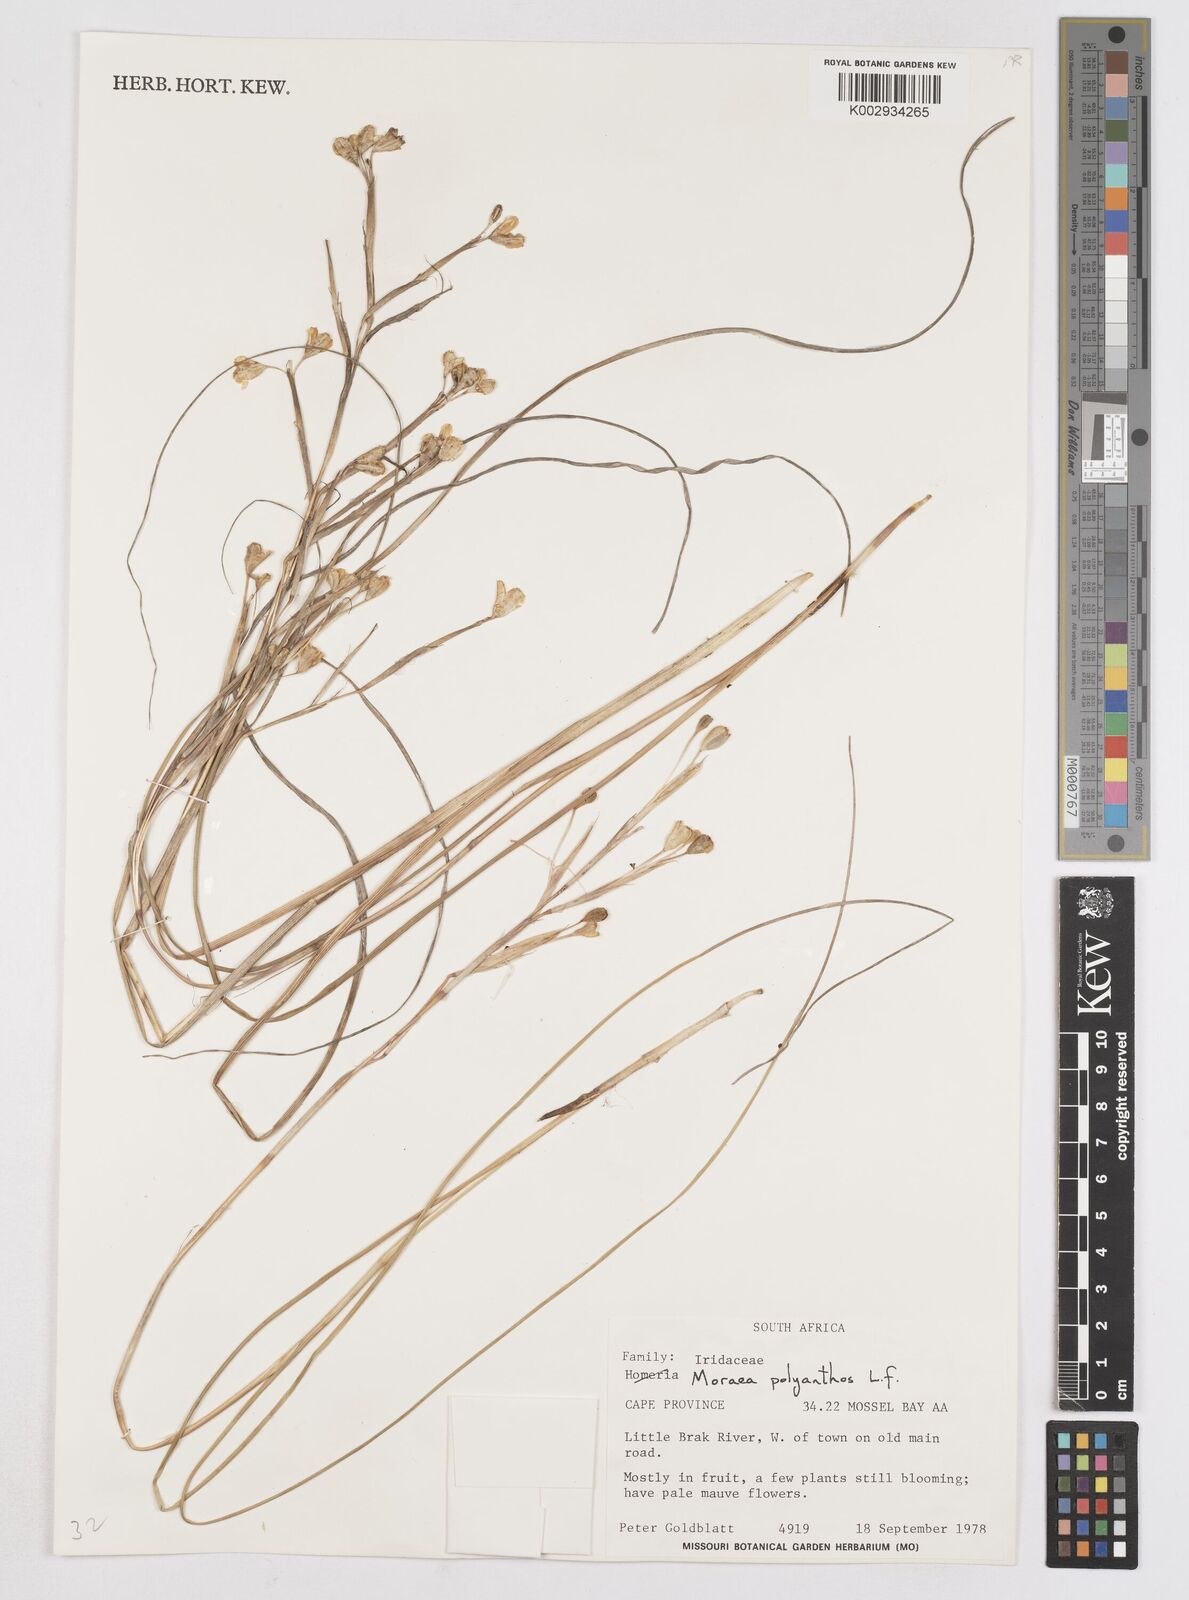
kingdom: Plantae
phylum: Tracheophyta
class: Liliopsida
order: Asparagales
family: Iridaceae
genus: Moraea
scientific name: Moraea bipartita
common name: Blue tulp
